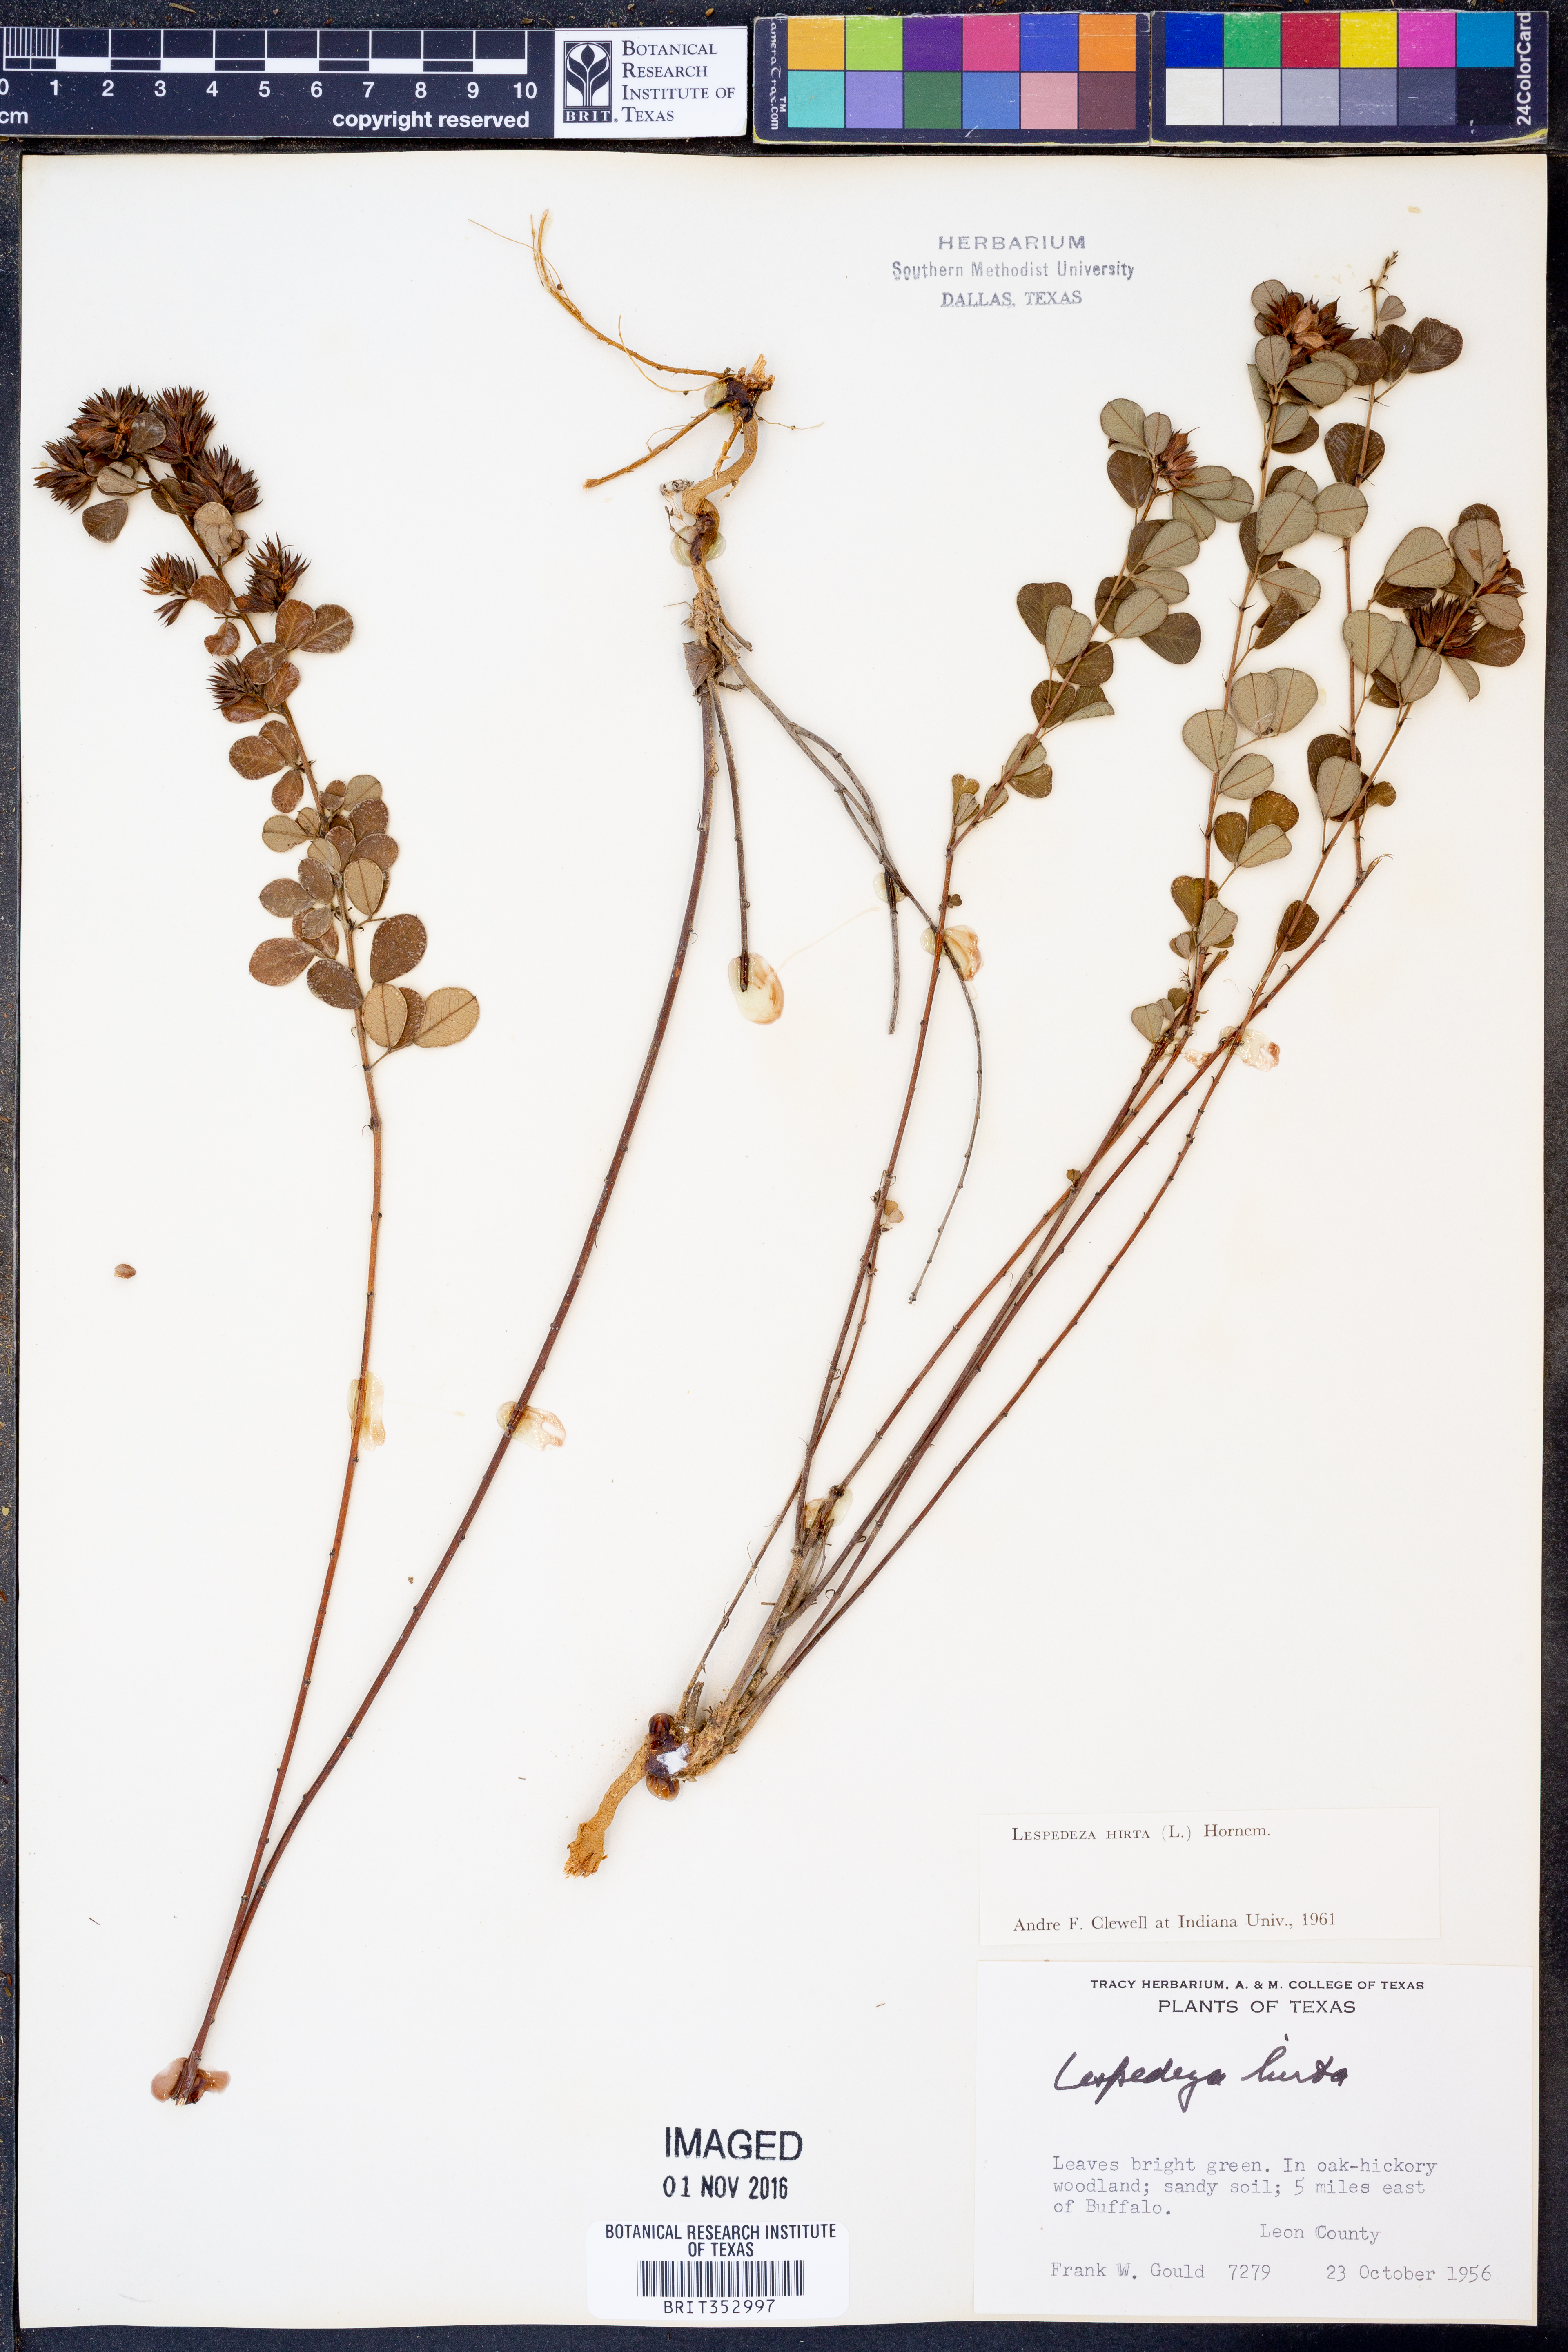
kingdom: Plantae
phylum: Tracheophyta
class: Magnoliopsida
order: Fabales
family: Fabaceae
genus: Lespedeza
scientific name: Lespedeza hirta
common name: Hairy lespedeza
